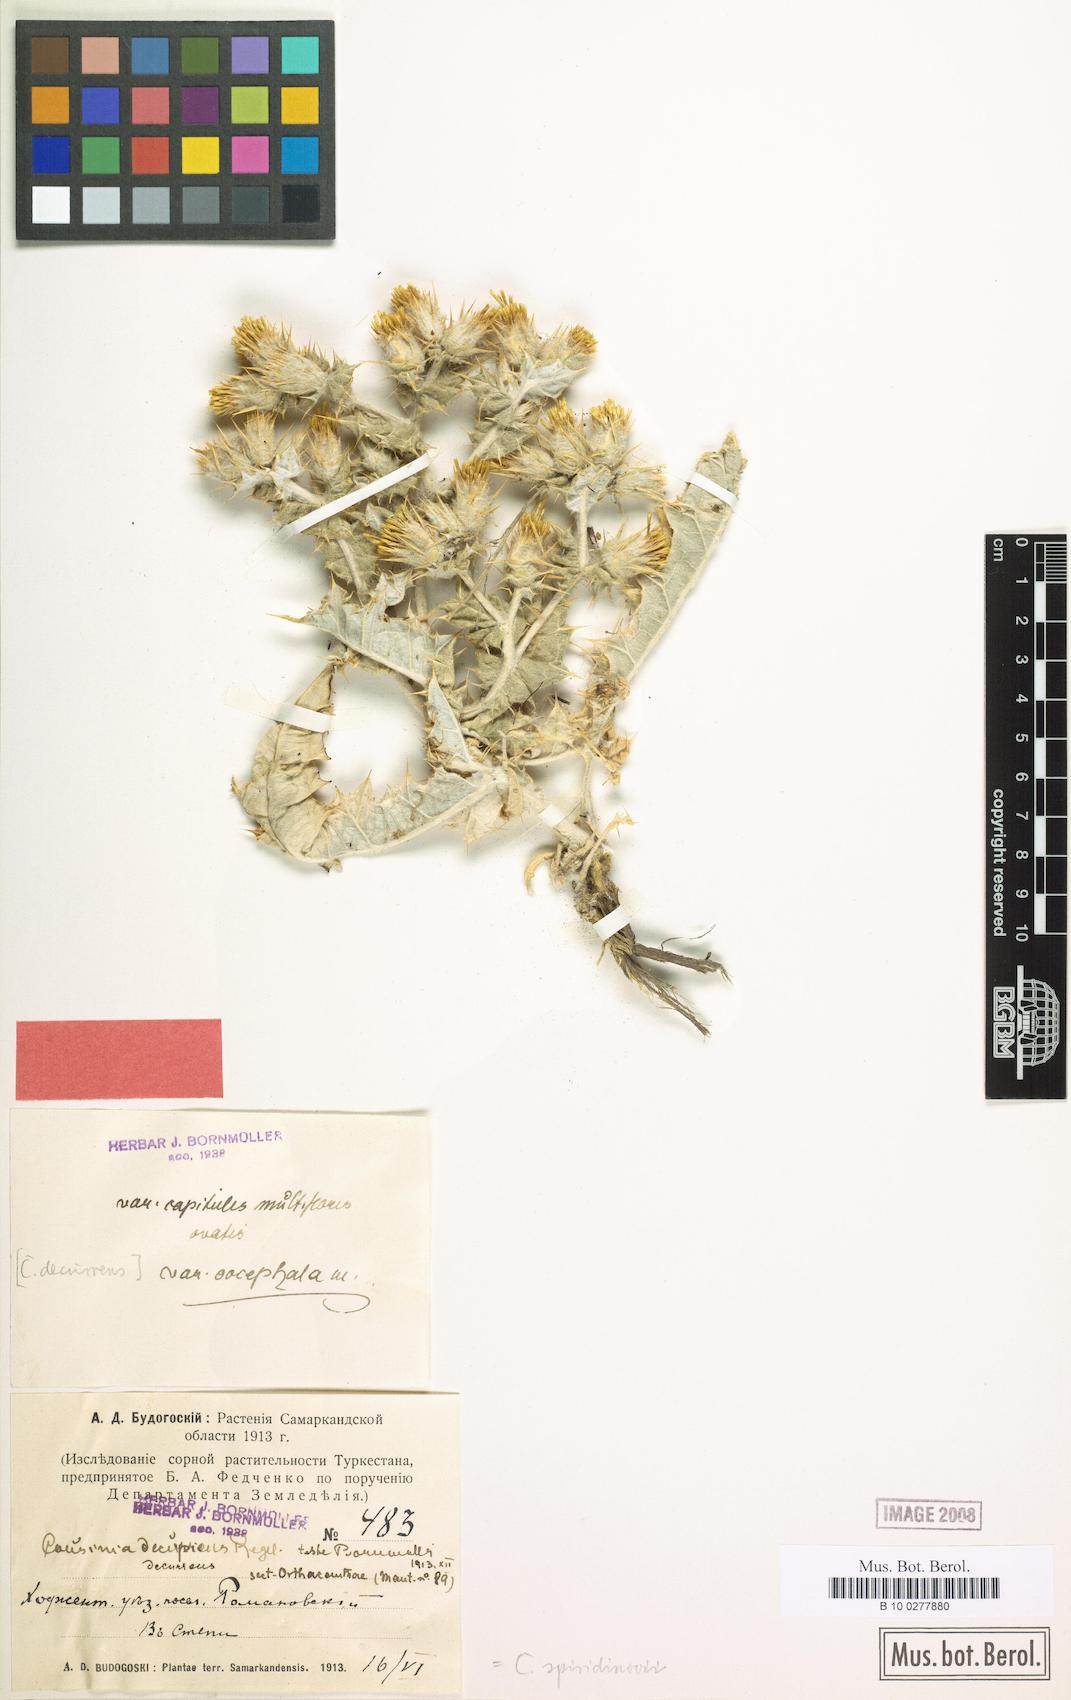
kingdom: Plantae
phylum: Tracheophyta
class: Magnoliopsida
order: Asterales
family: Asteraceae
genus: Cousinia
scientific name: Cousinia spiridonovii
